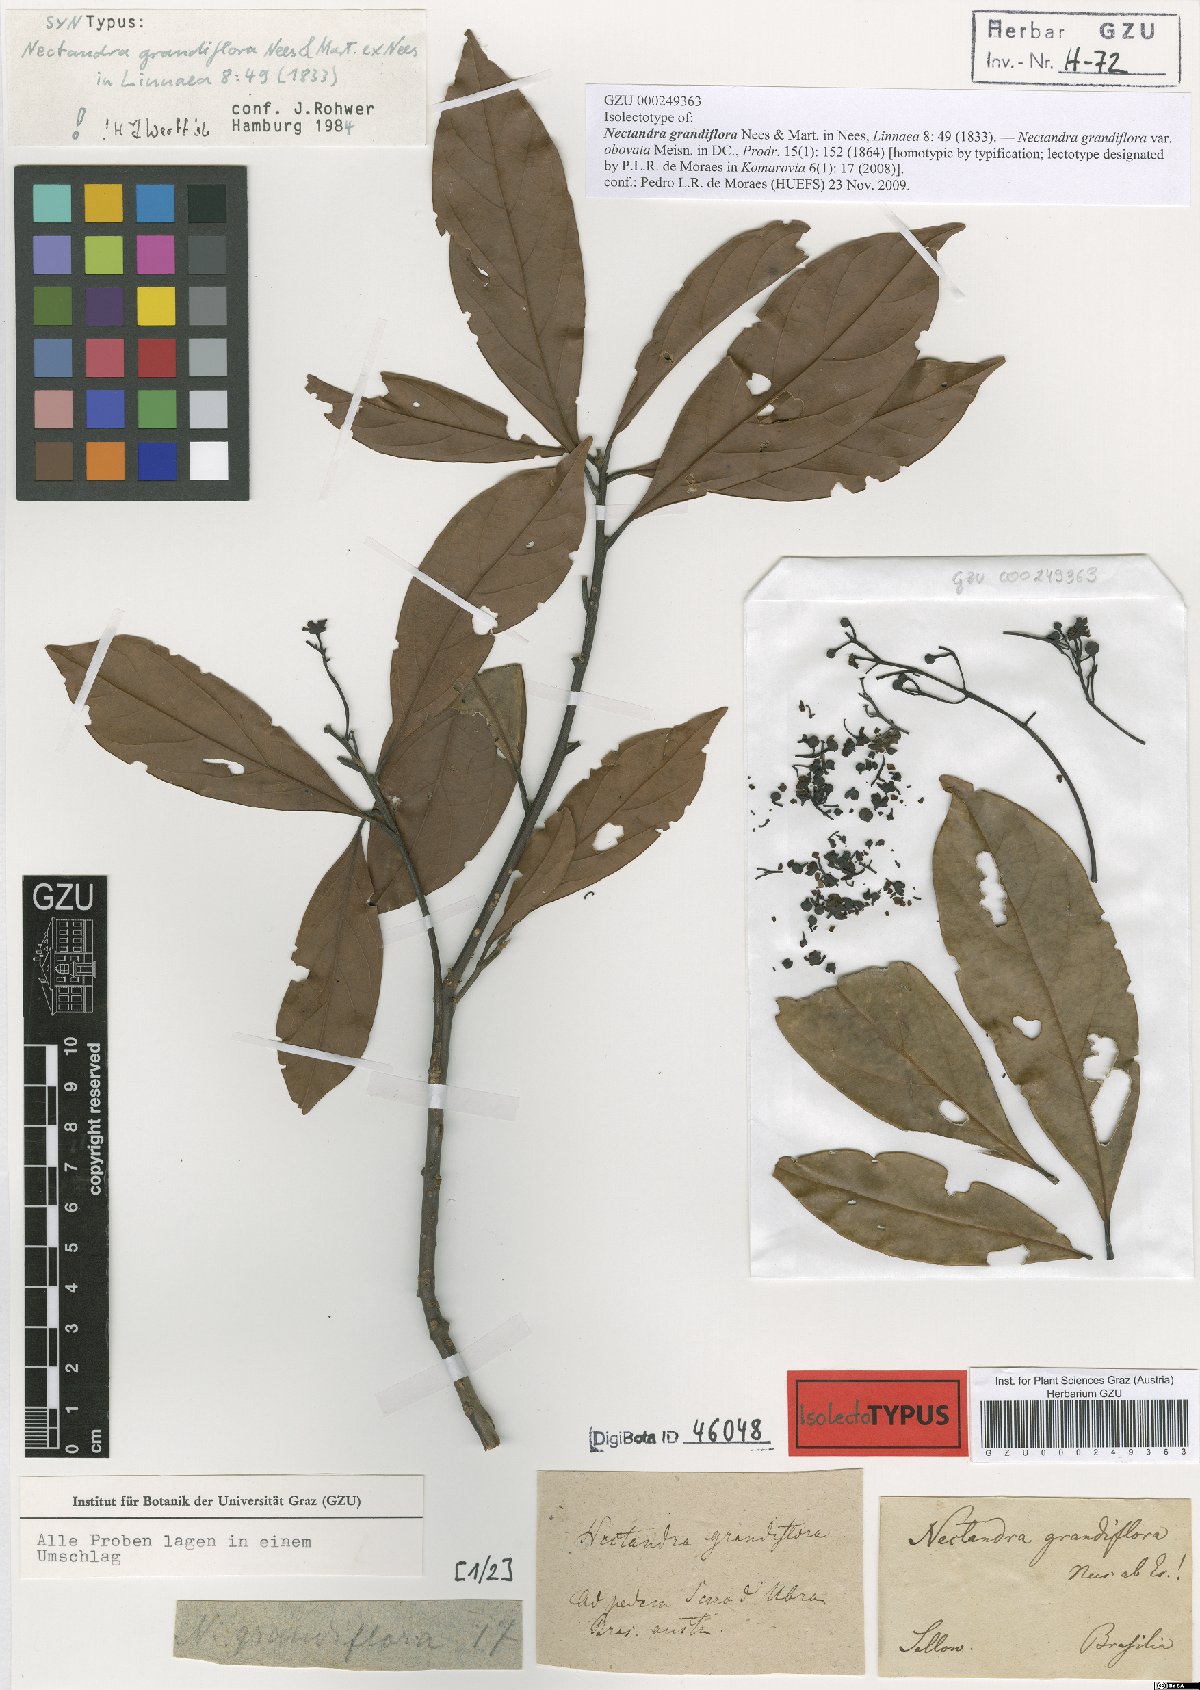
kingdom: Plantae
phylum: Tracheophyta
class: Magnoliopsida
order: Laurales
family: Lauraceae
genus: Nectandra
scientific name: Nectandra grandiflora
